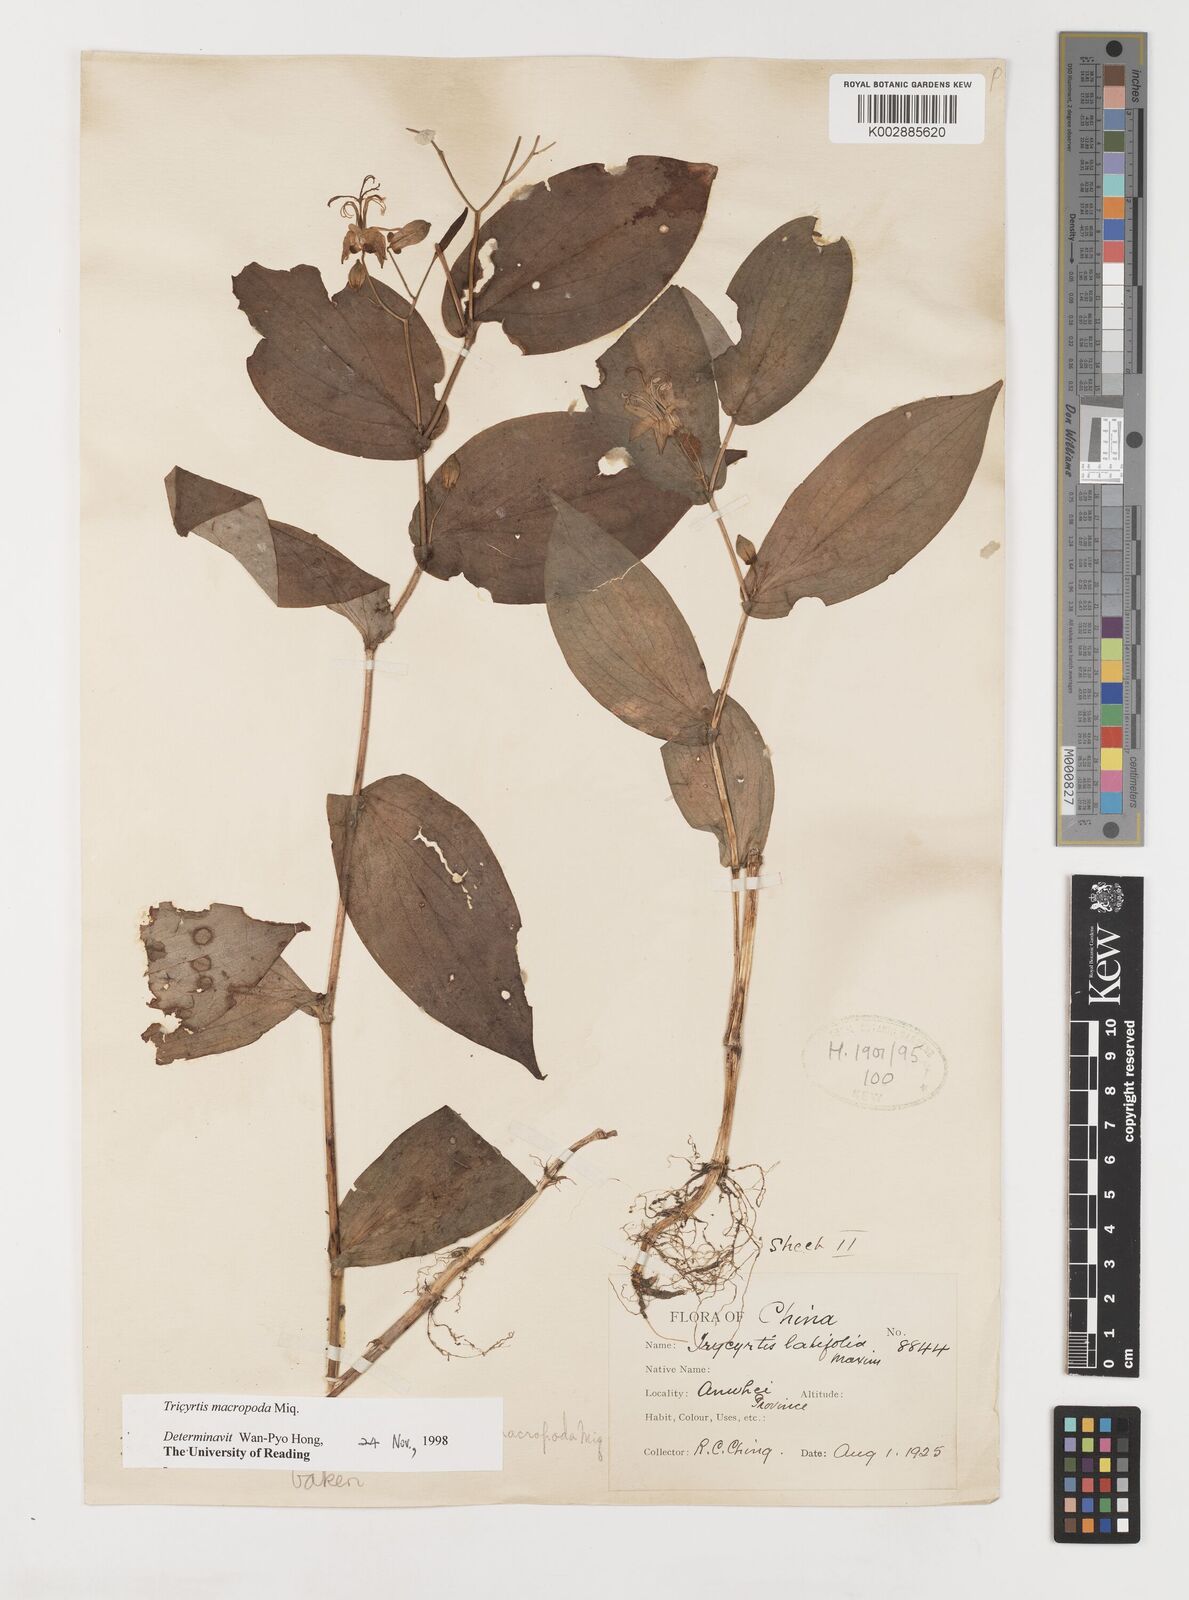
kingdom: Plantae
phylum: Tracheophyta
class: Liliopsida
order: Liliales
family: Liliaceae
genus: Tricyrtis
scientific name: Tricyrtis latifolia
